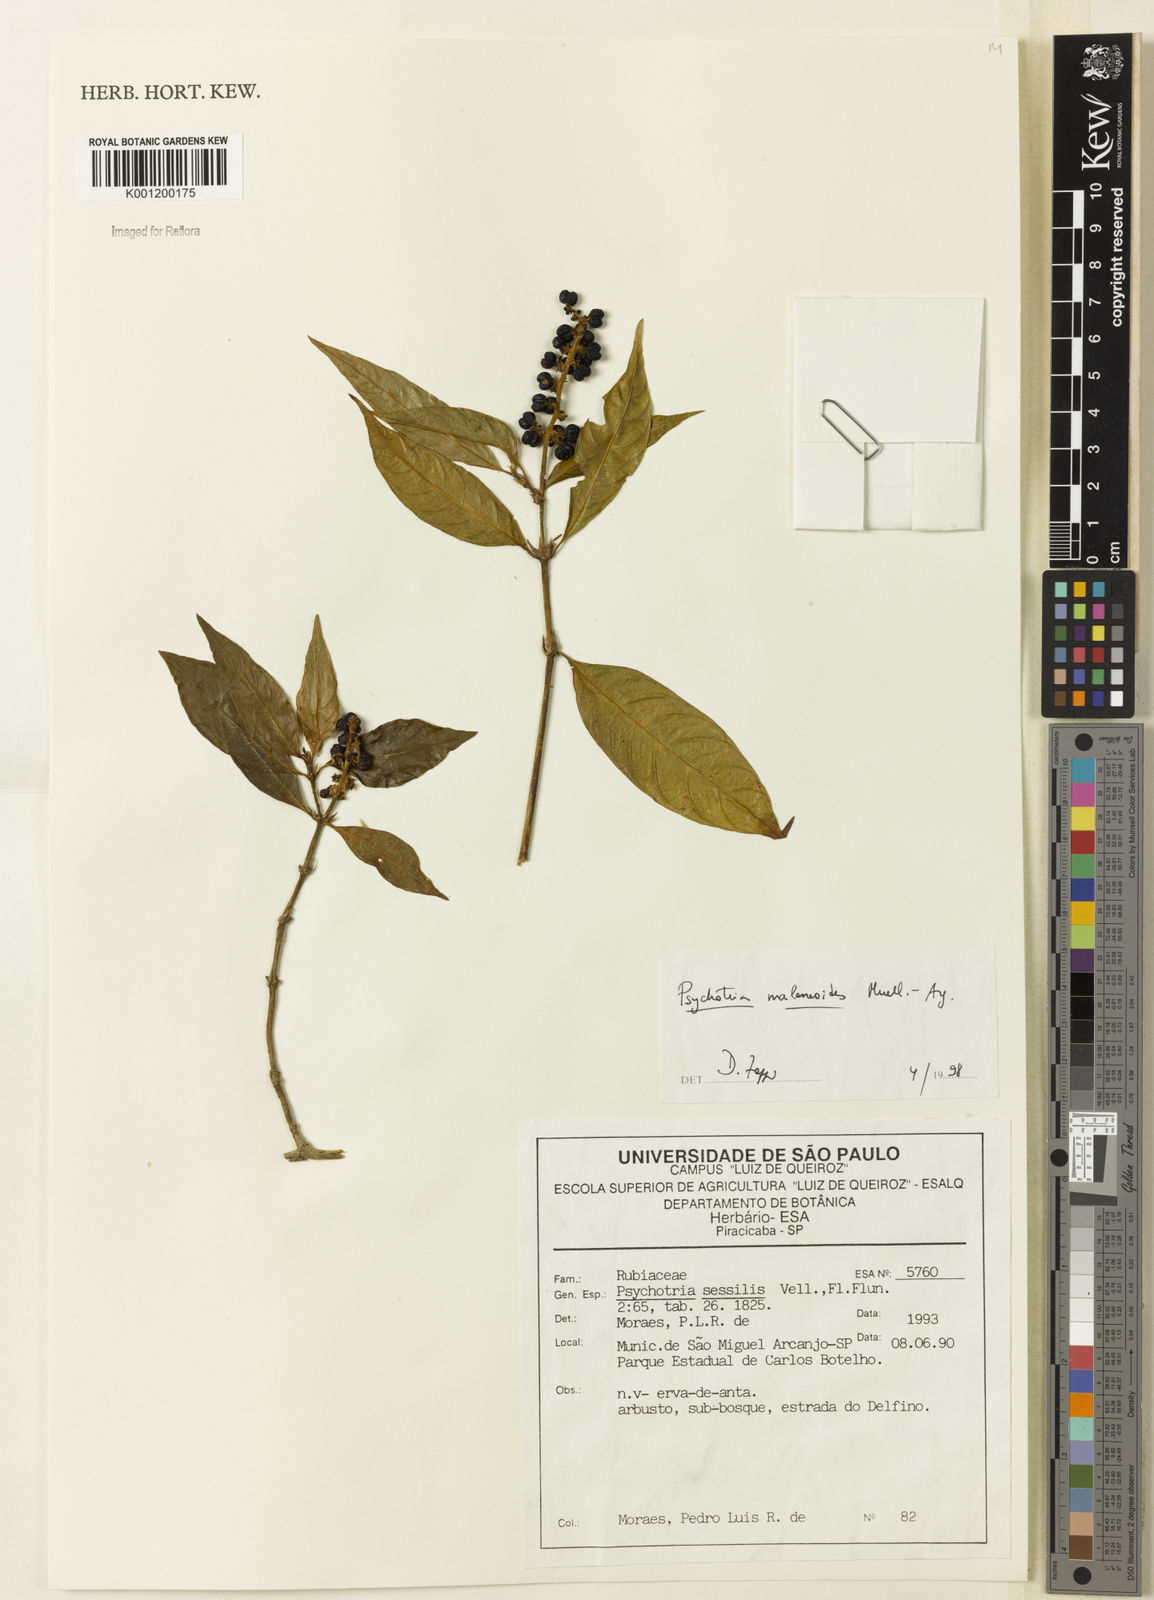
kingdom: Plantae
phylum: Tracheophyta
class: Magnoliopsida
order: Gentianales
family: Rubiaceae
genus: Rudgea
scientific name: Rudgea sessilis
